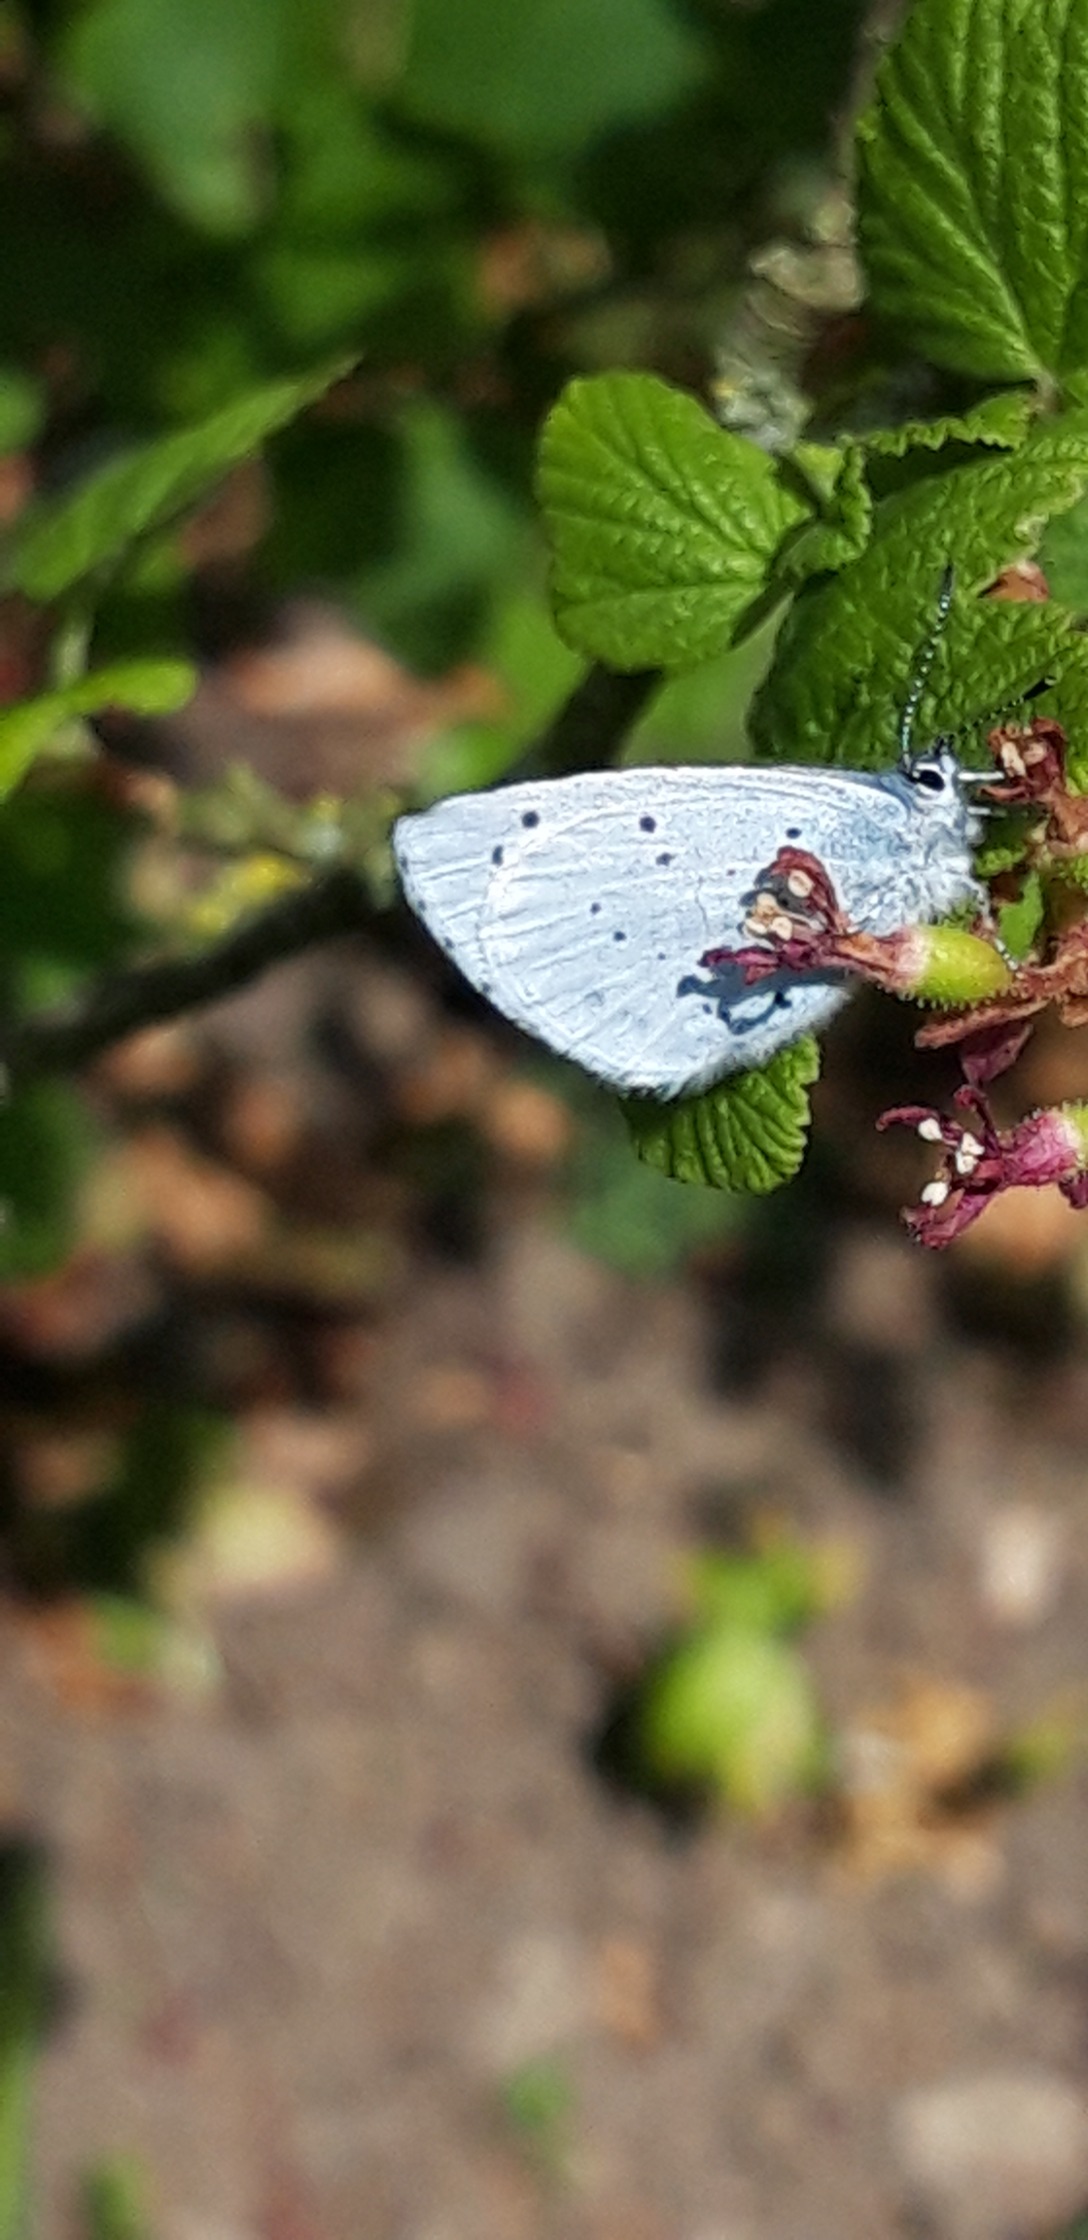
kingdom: Animalia
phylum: Arthropoda
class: Insecta
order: Lepidoptera
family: Lycaenidae
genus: Celastrina
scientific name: Celastrina argiolus
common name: Skovblåfugl
